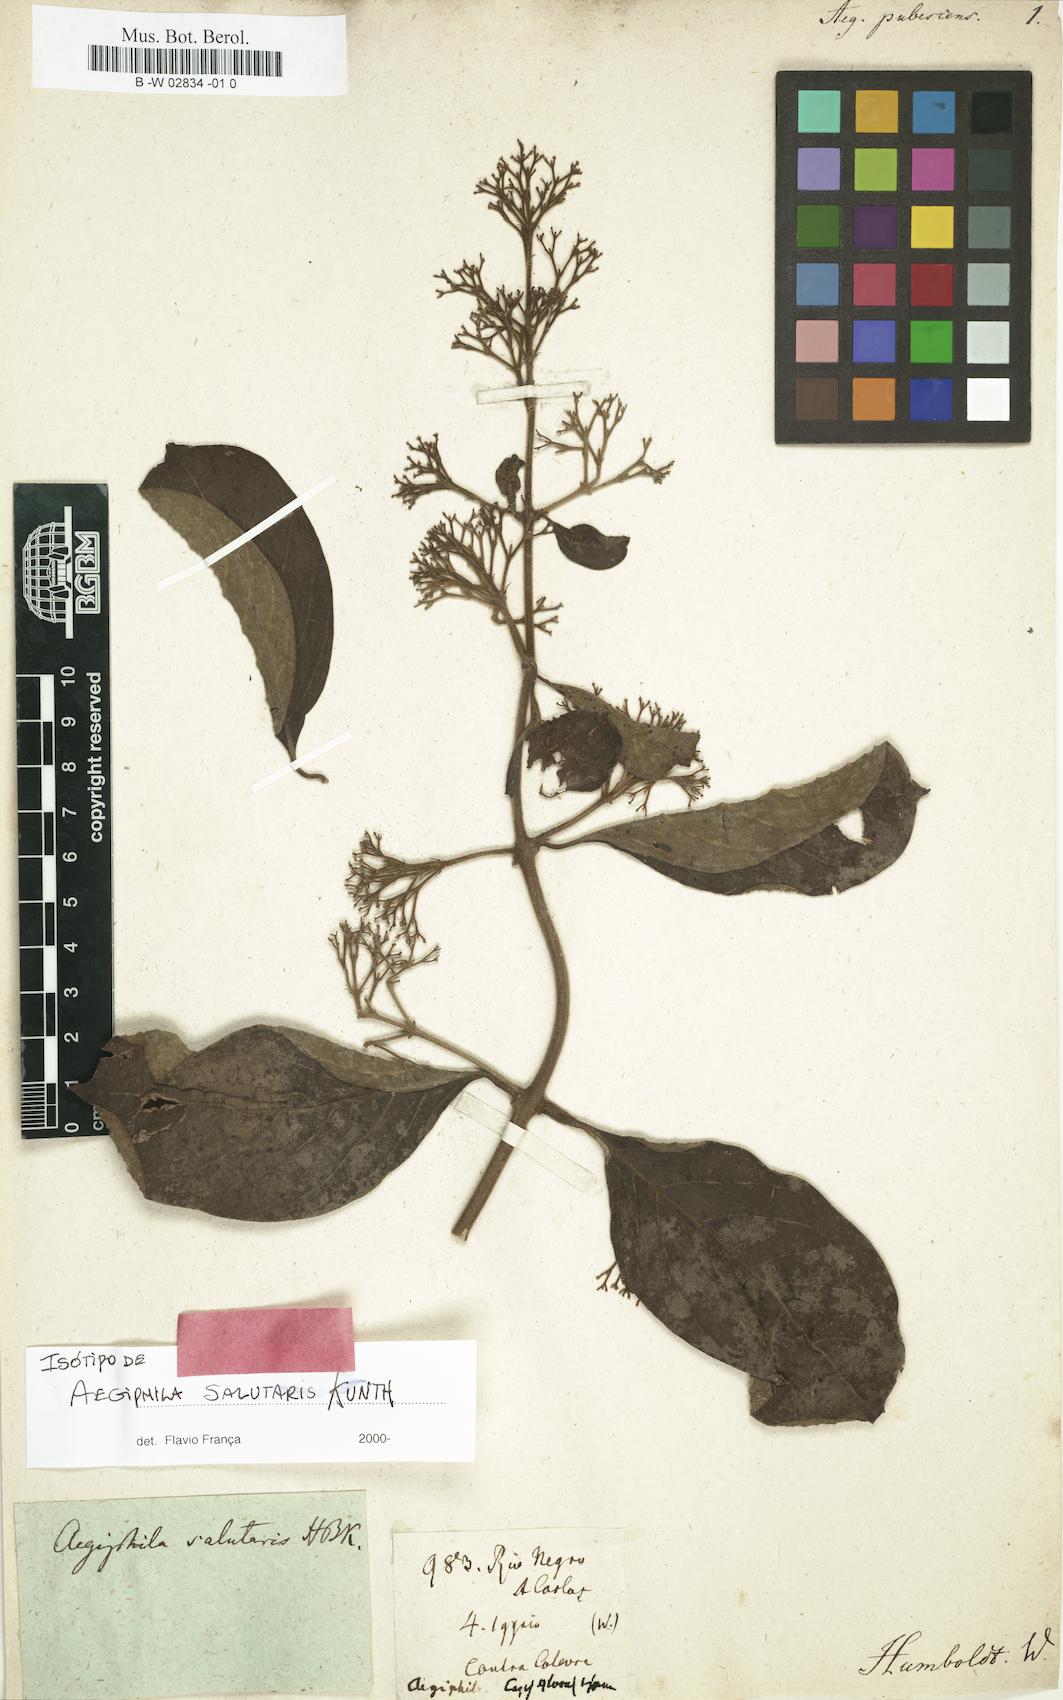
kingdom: Plantae
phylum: Tracheophyta
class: Magnoliopsida
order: Lamiales
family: Lamiaceae
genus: Aegiphila
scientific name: Aegiphila mollis
